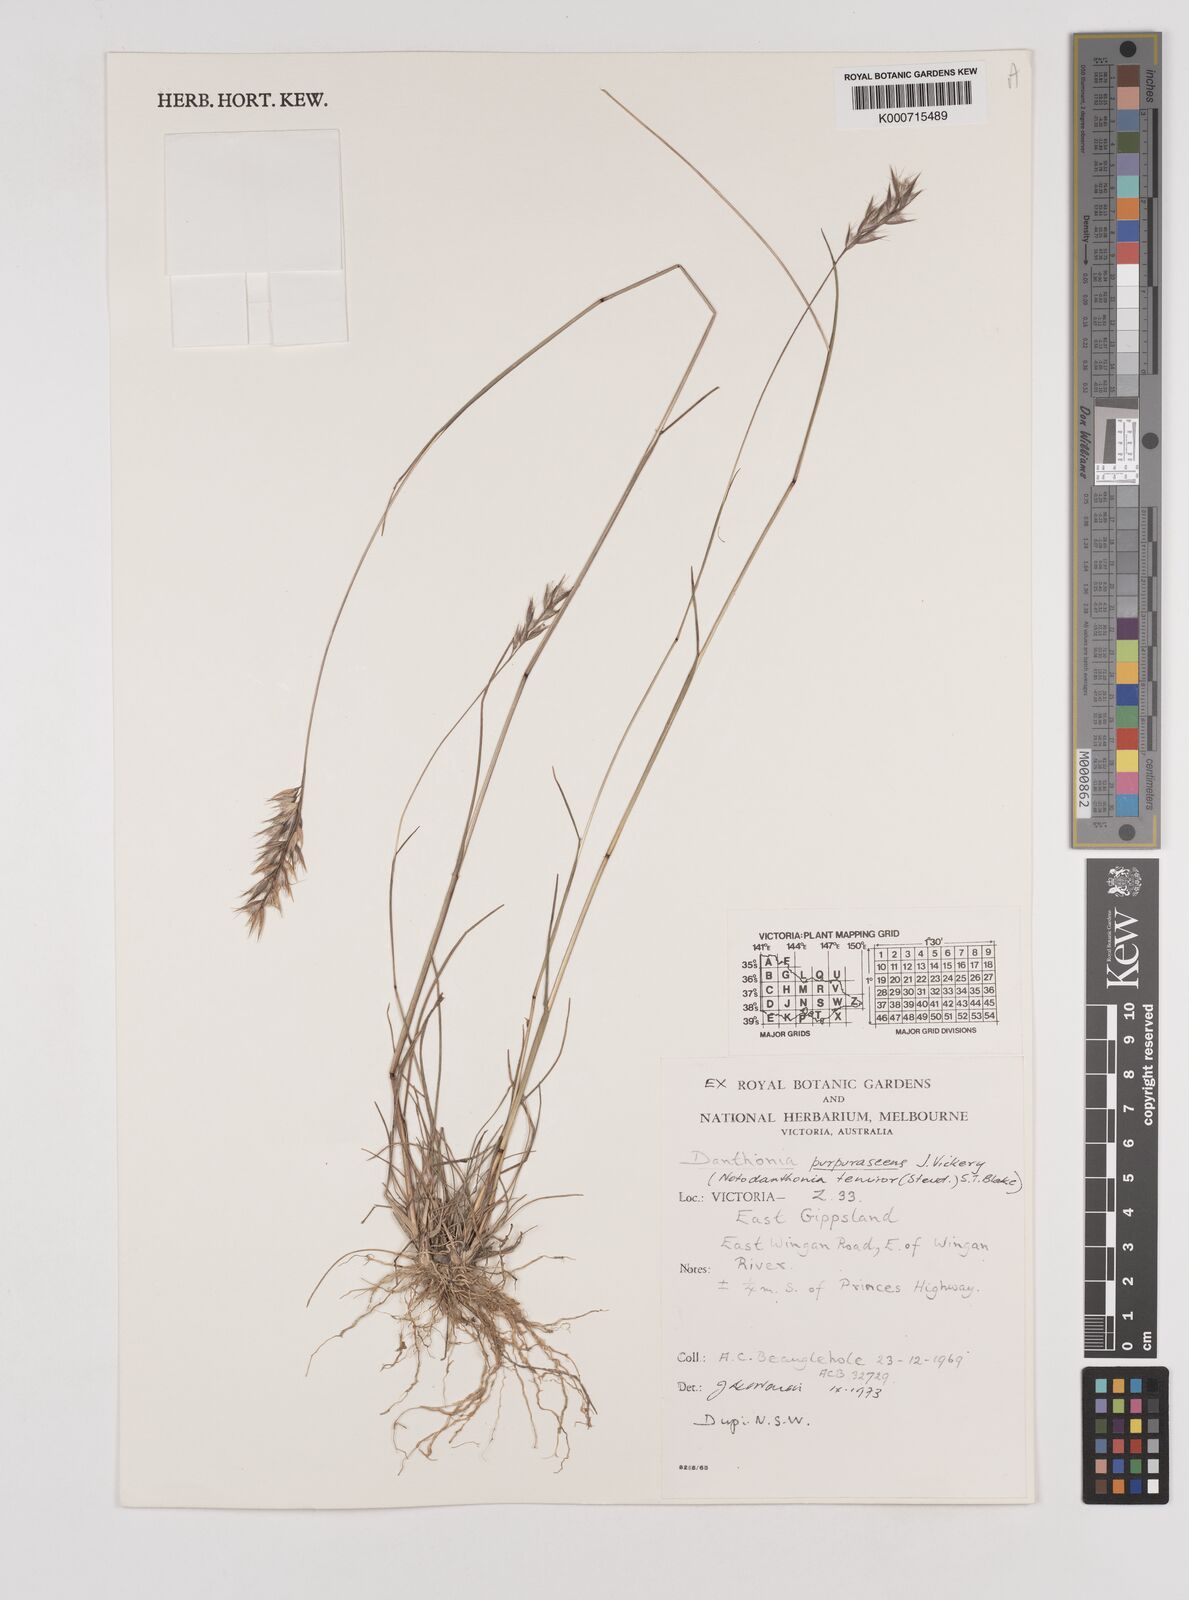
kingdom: Plantae
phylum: Tracheophyta
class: Liliopsida
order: Poales
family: Poaceae
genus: Rytidosperma
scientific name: Rytidosperma tenuius
